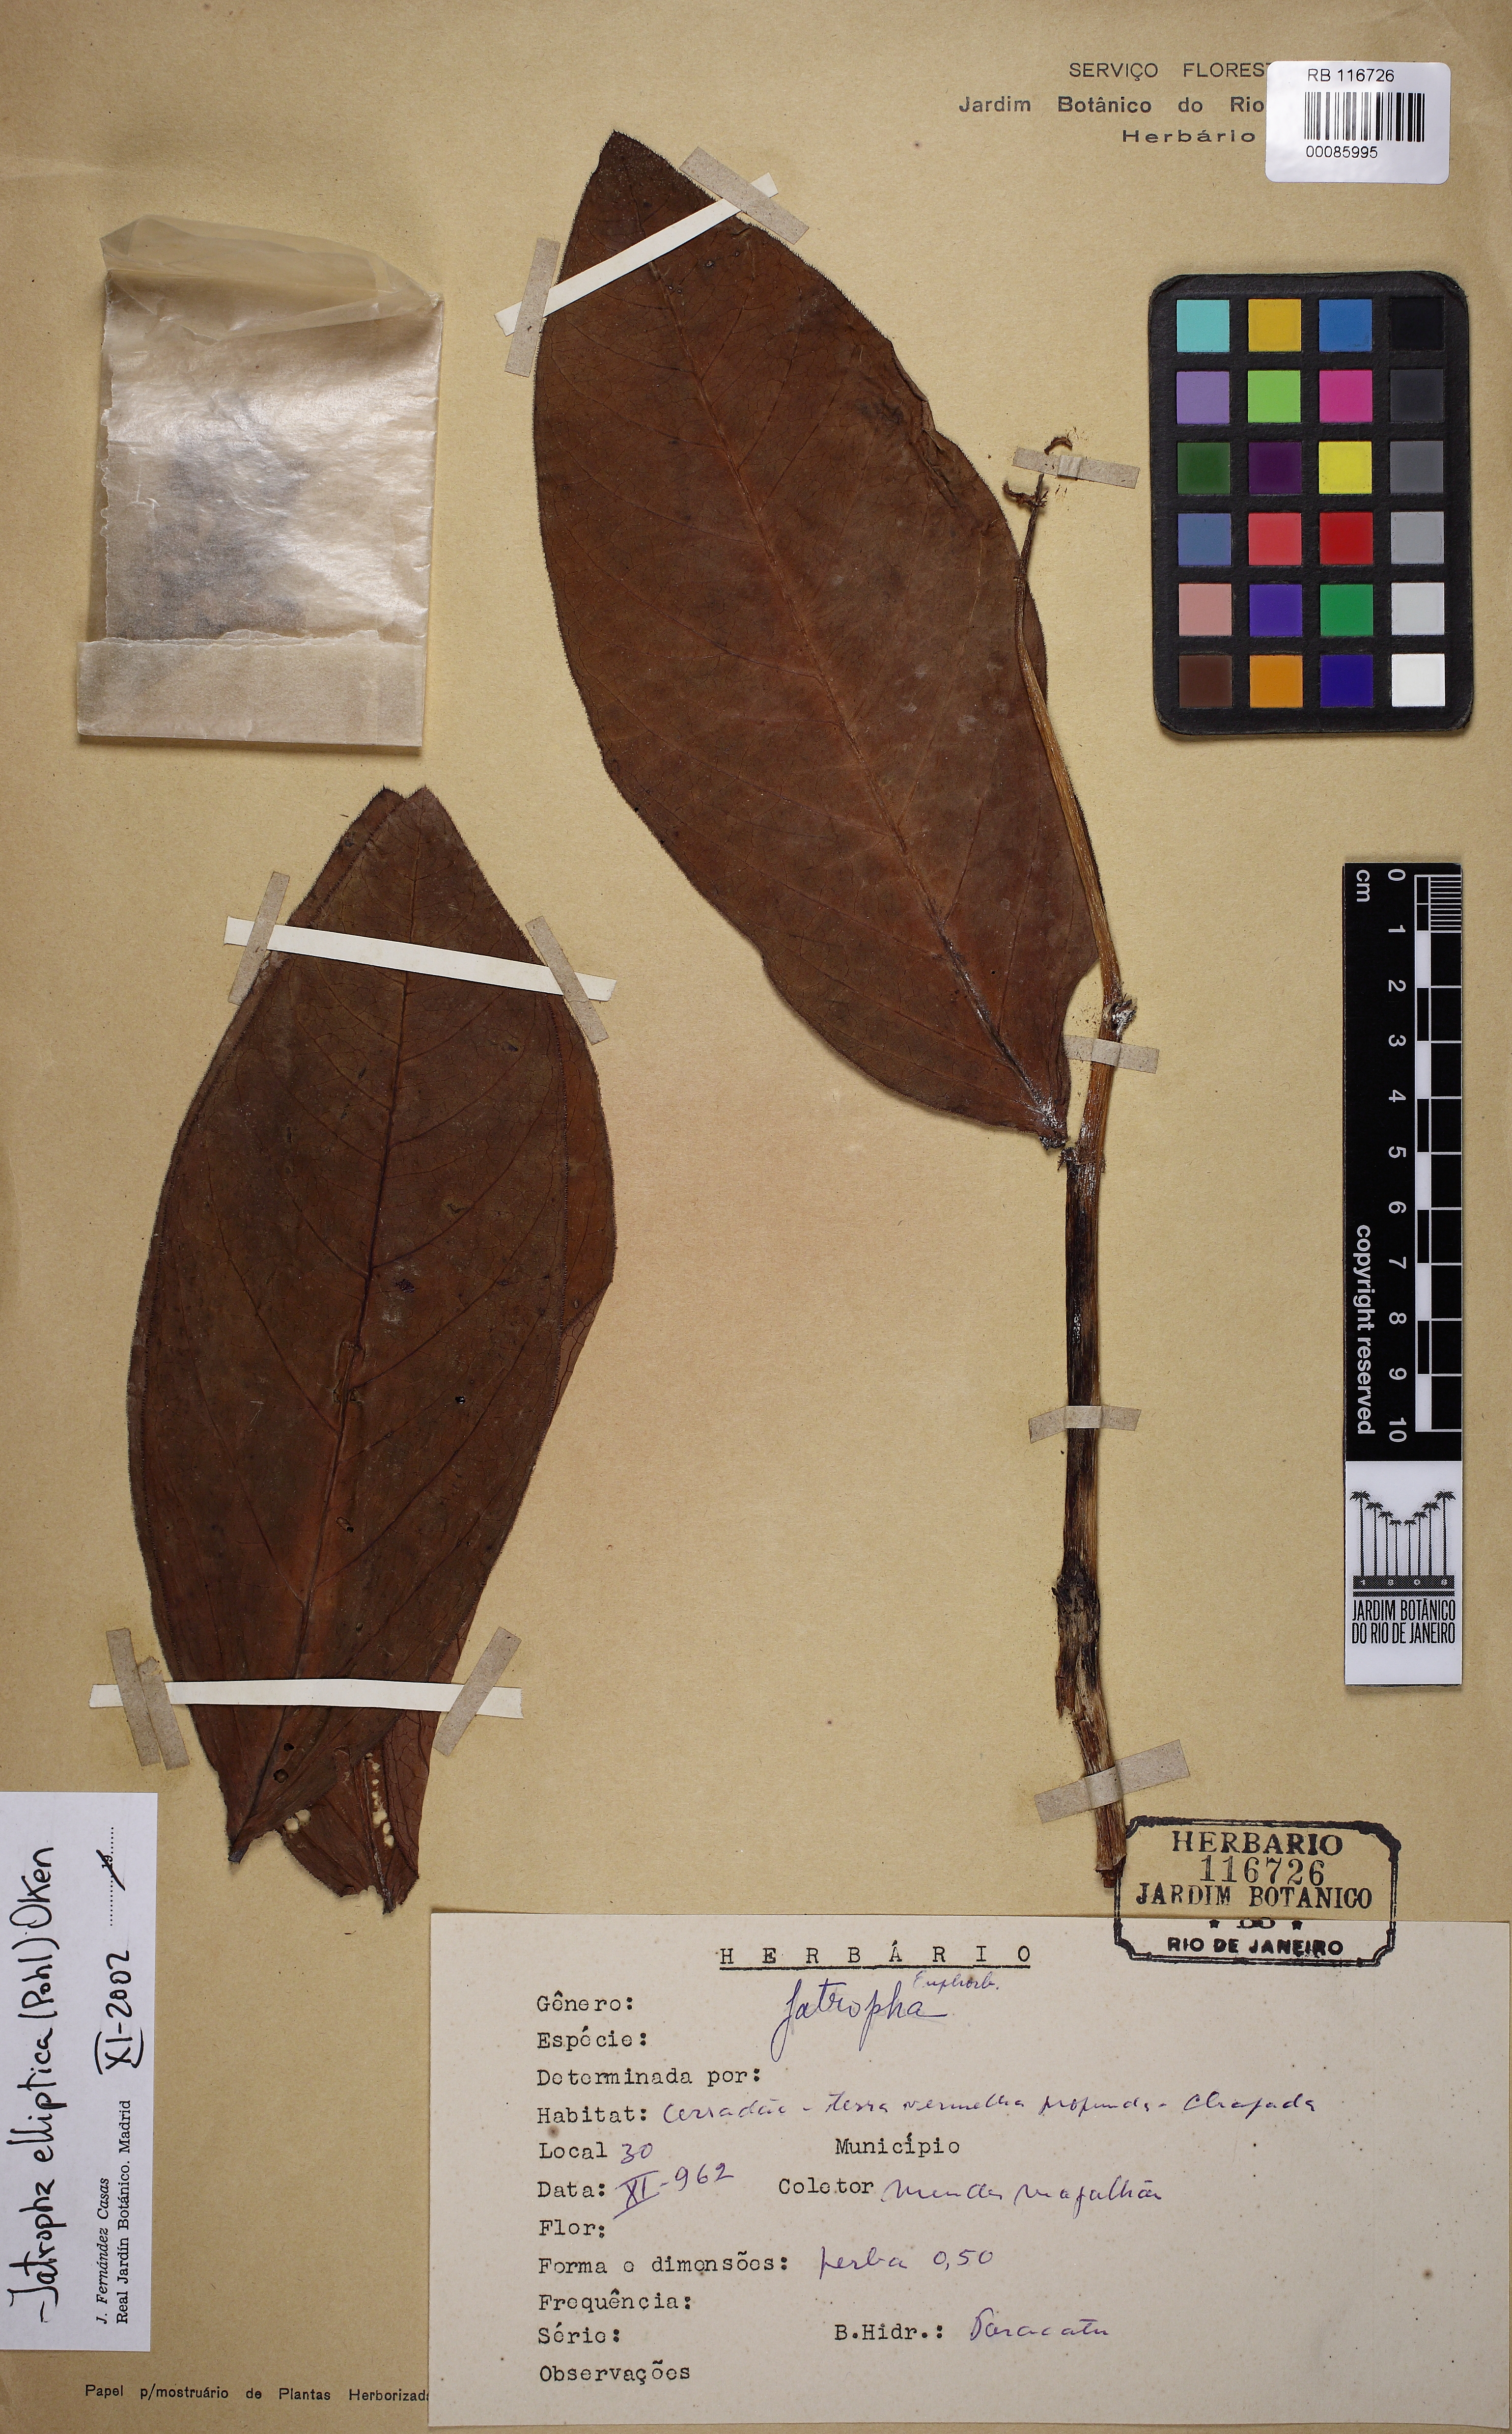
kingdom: Plantae
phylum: Tracheophyta
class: Magnoliopsida
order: Malpighiales
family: Euphorbiaceae
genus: Jatropha
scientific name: Jatropha elliptica
